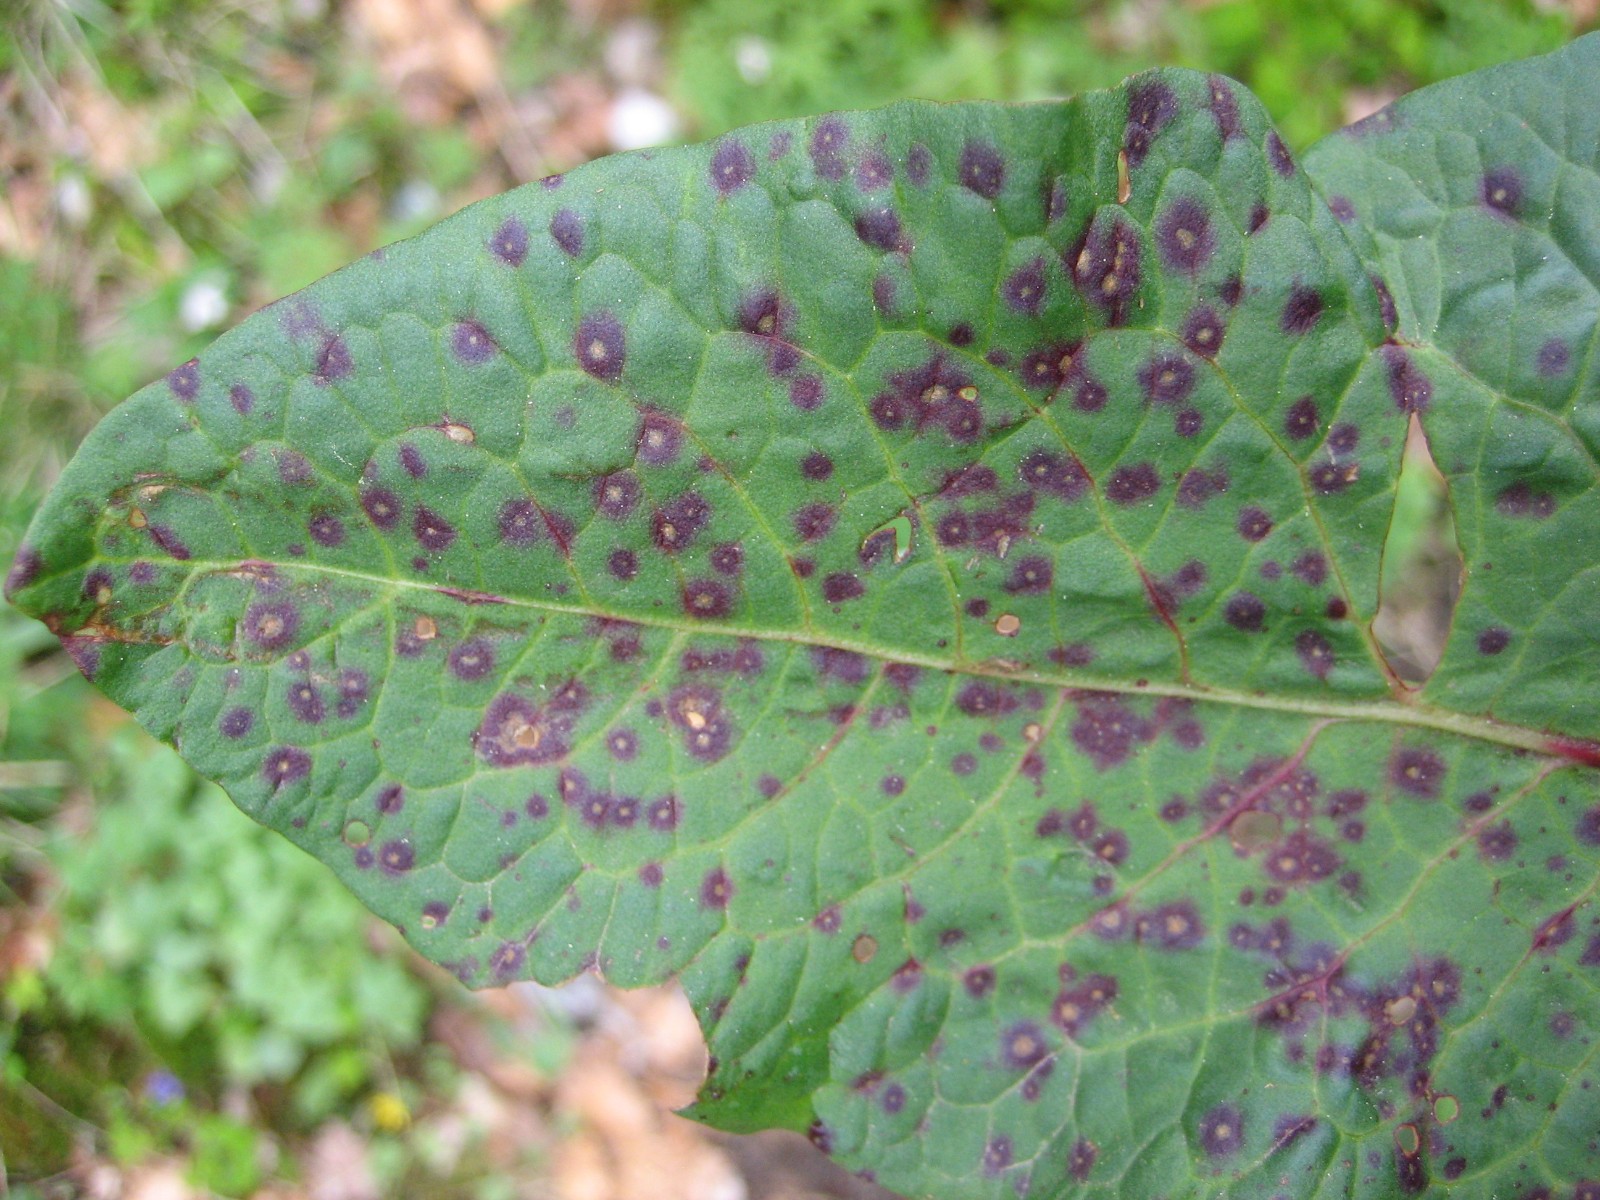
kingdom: Fungi
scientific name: Fungi
